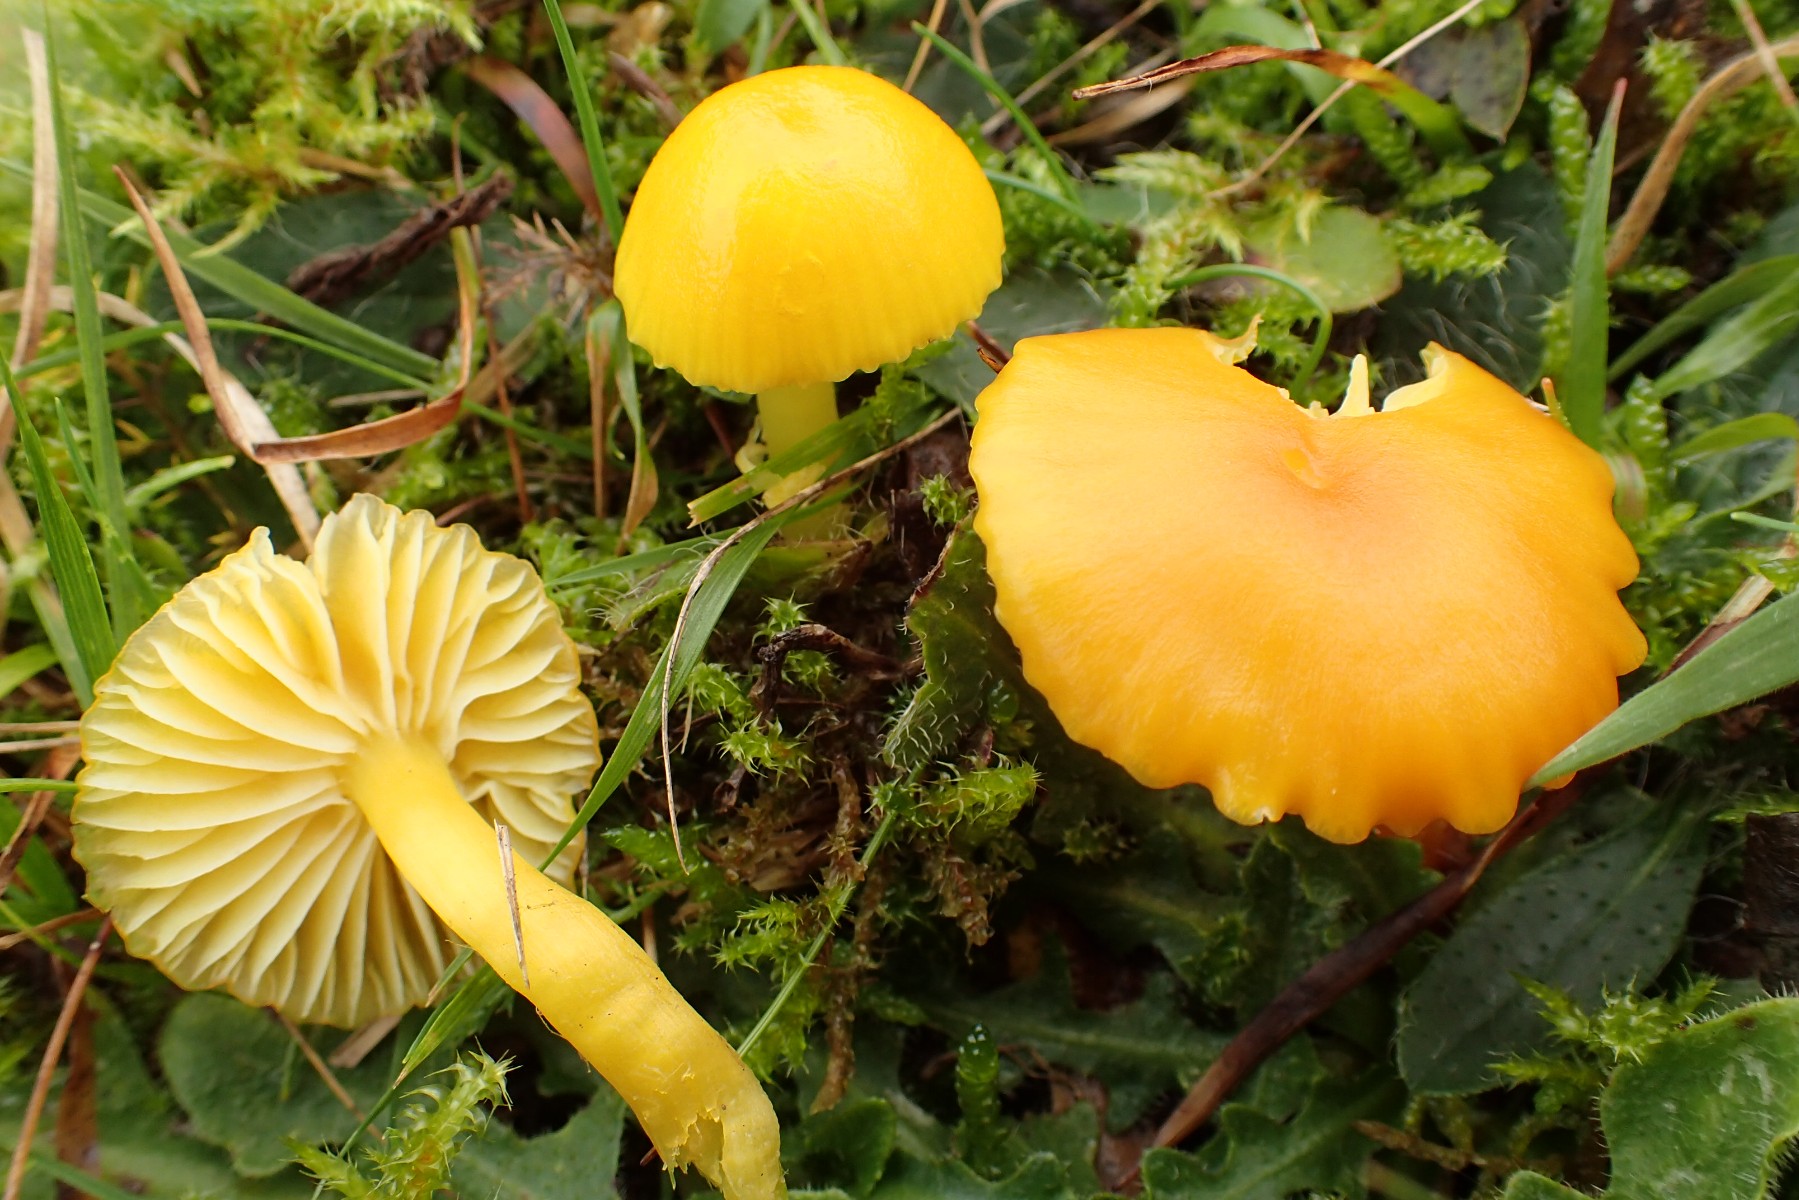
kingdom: Fungi
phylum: Basidiomycota
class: Agaricomycetes
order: Agaricales
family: Hygrophoraceae
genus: Hygrocybe
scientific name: Hygrocybe ceracea
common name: voksgul vokshat
